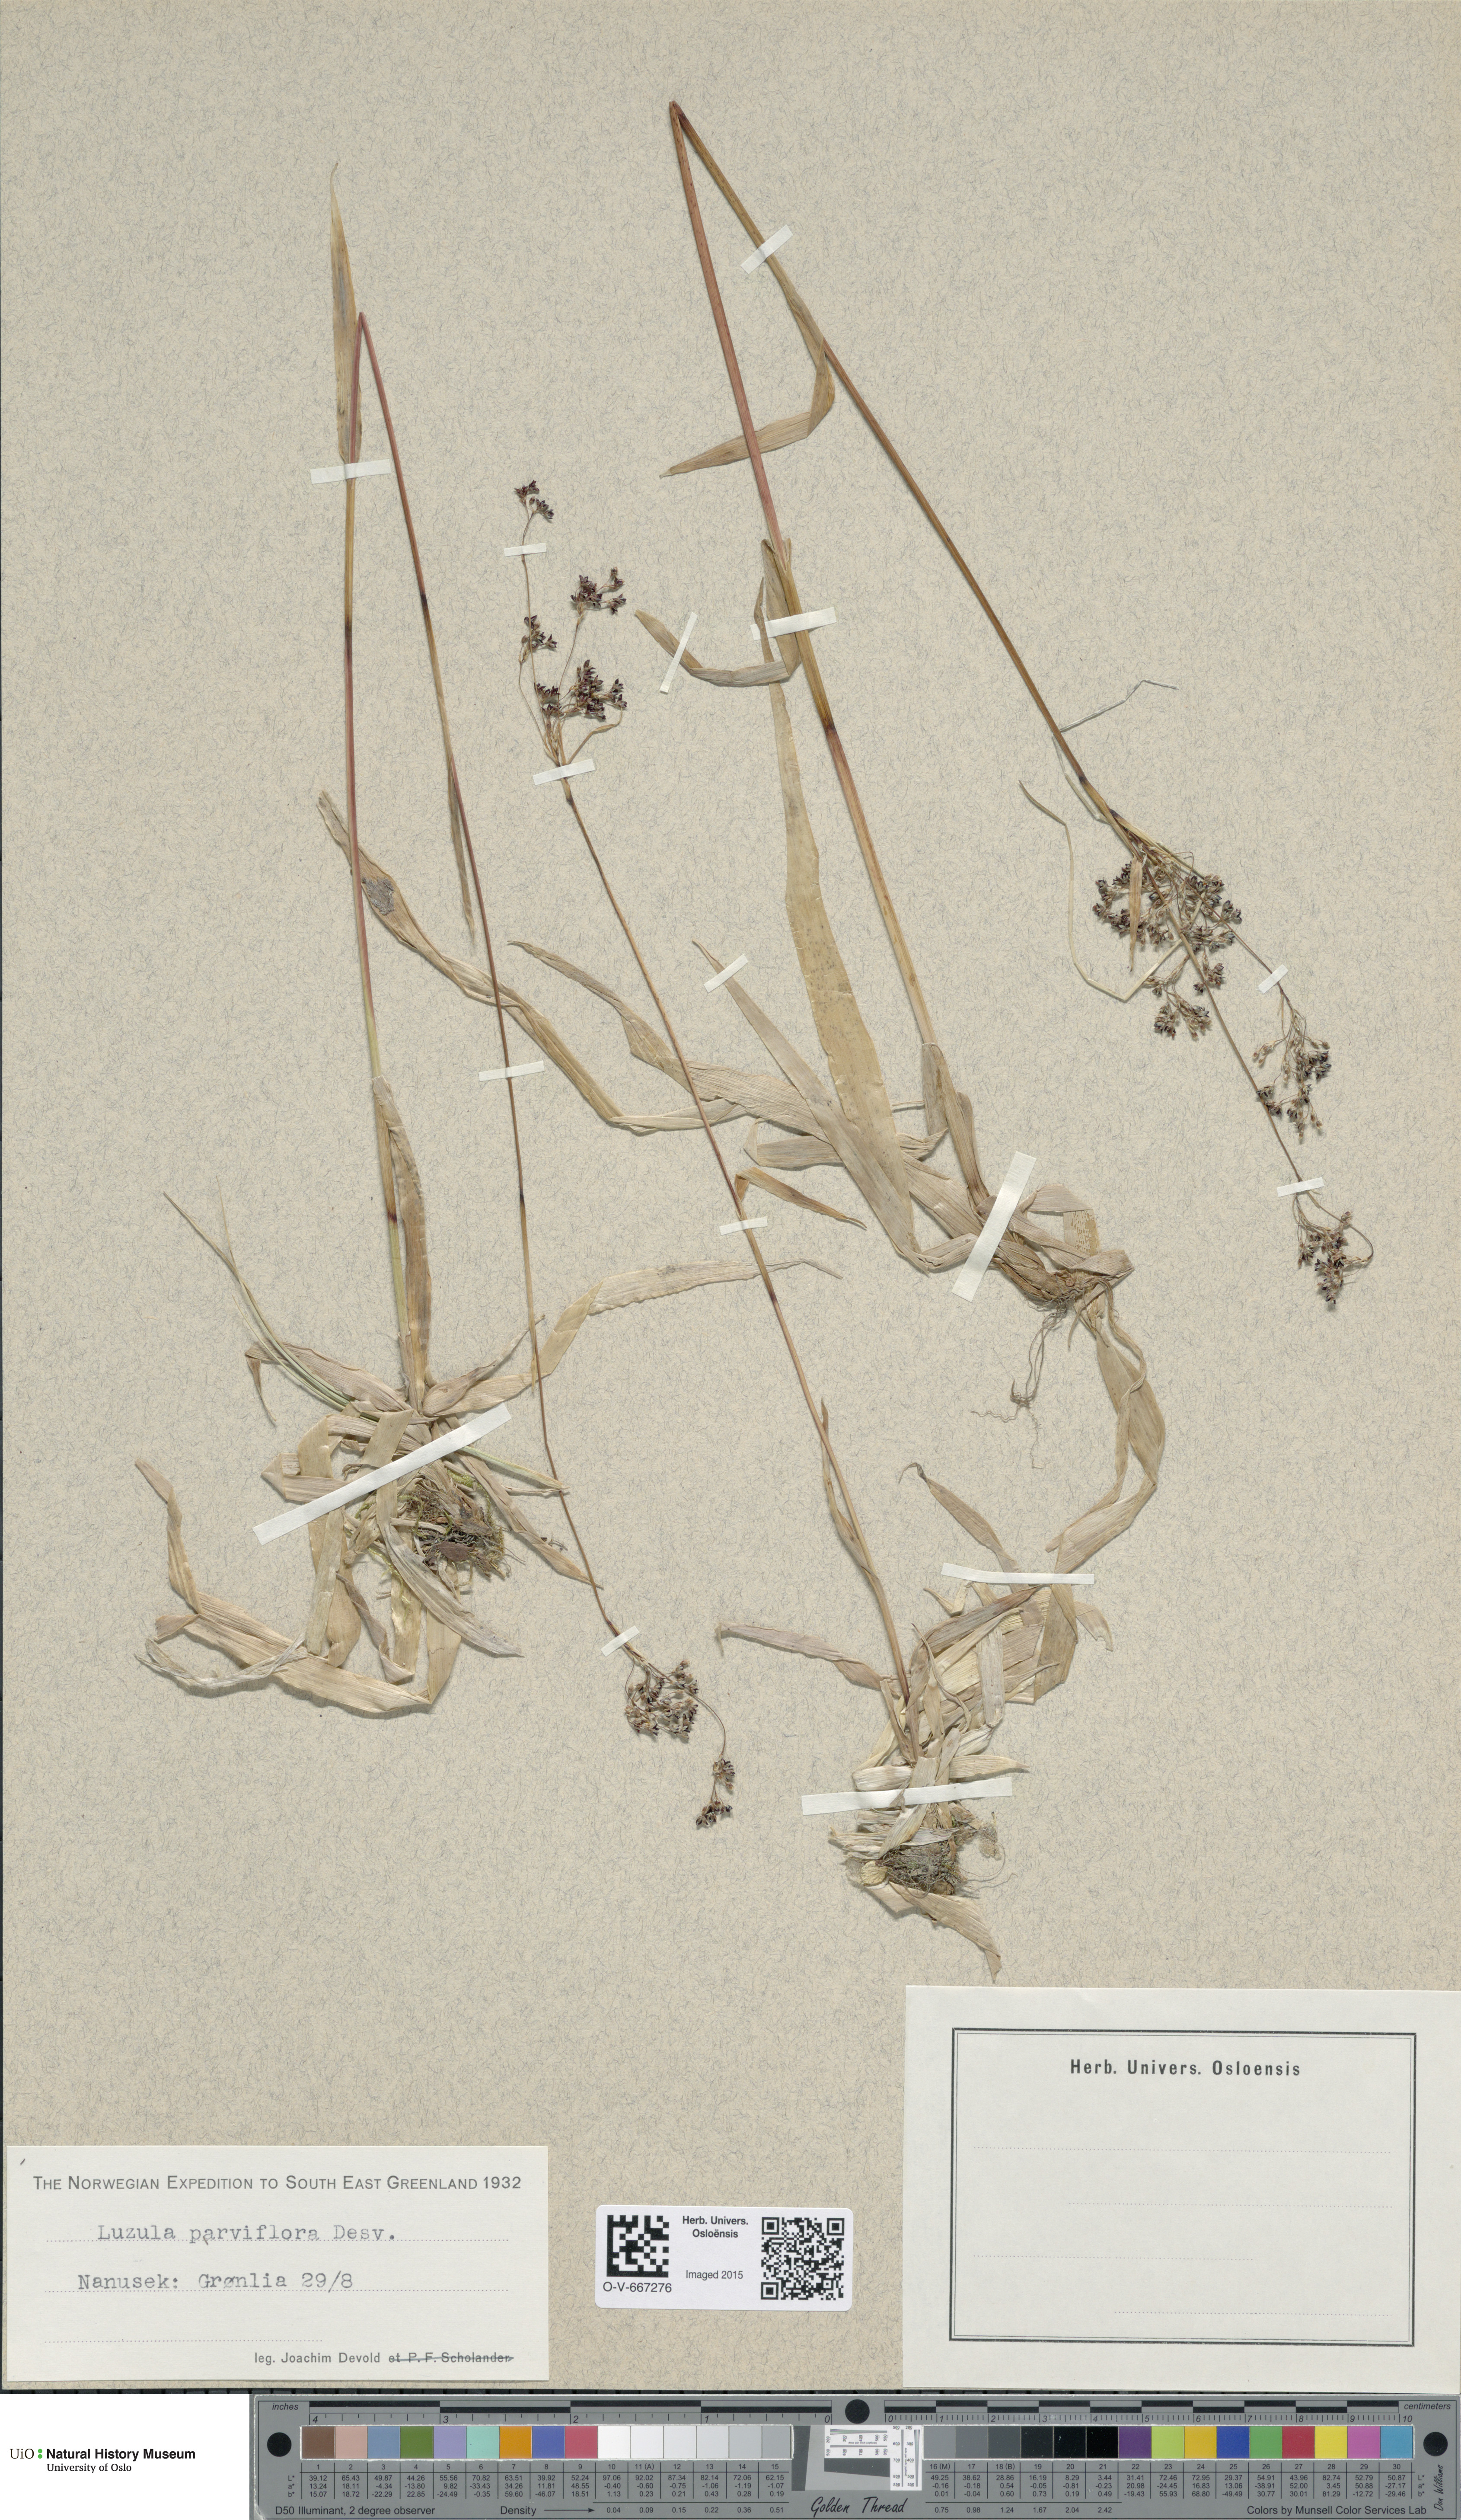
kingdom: Plantae
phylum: Tracheophyta
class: Liliopsida
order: Poales
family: Juncaceae
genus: Luzula
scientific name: Luzula parviflora
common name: Millet woodrush
